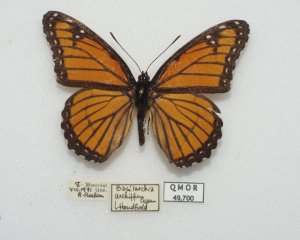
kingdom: Animalia
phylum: Arthropoda
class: Insecta
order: Lepidoptera
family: Nymphalidae
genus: Limenitis
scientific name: Limenitis archippus
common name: Viceroy
